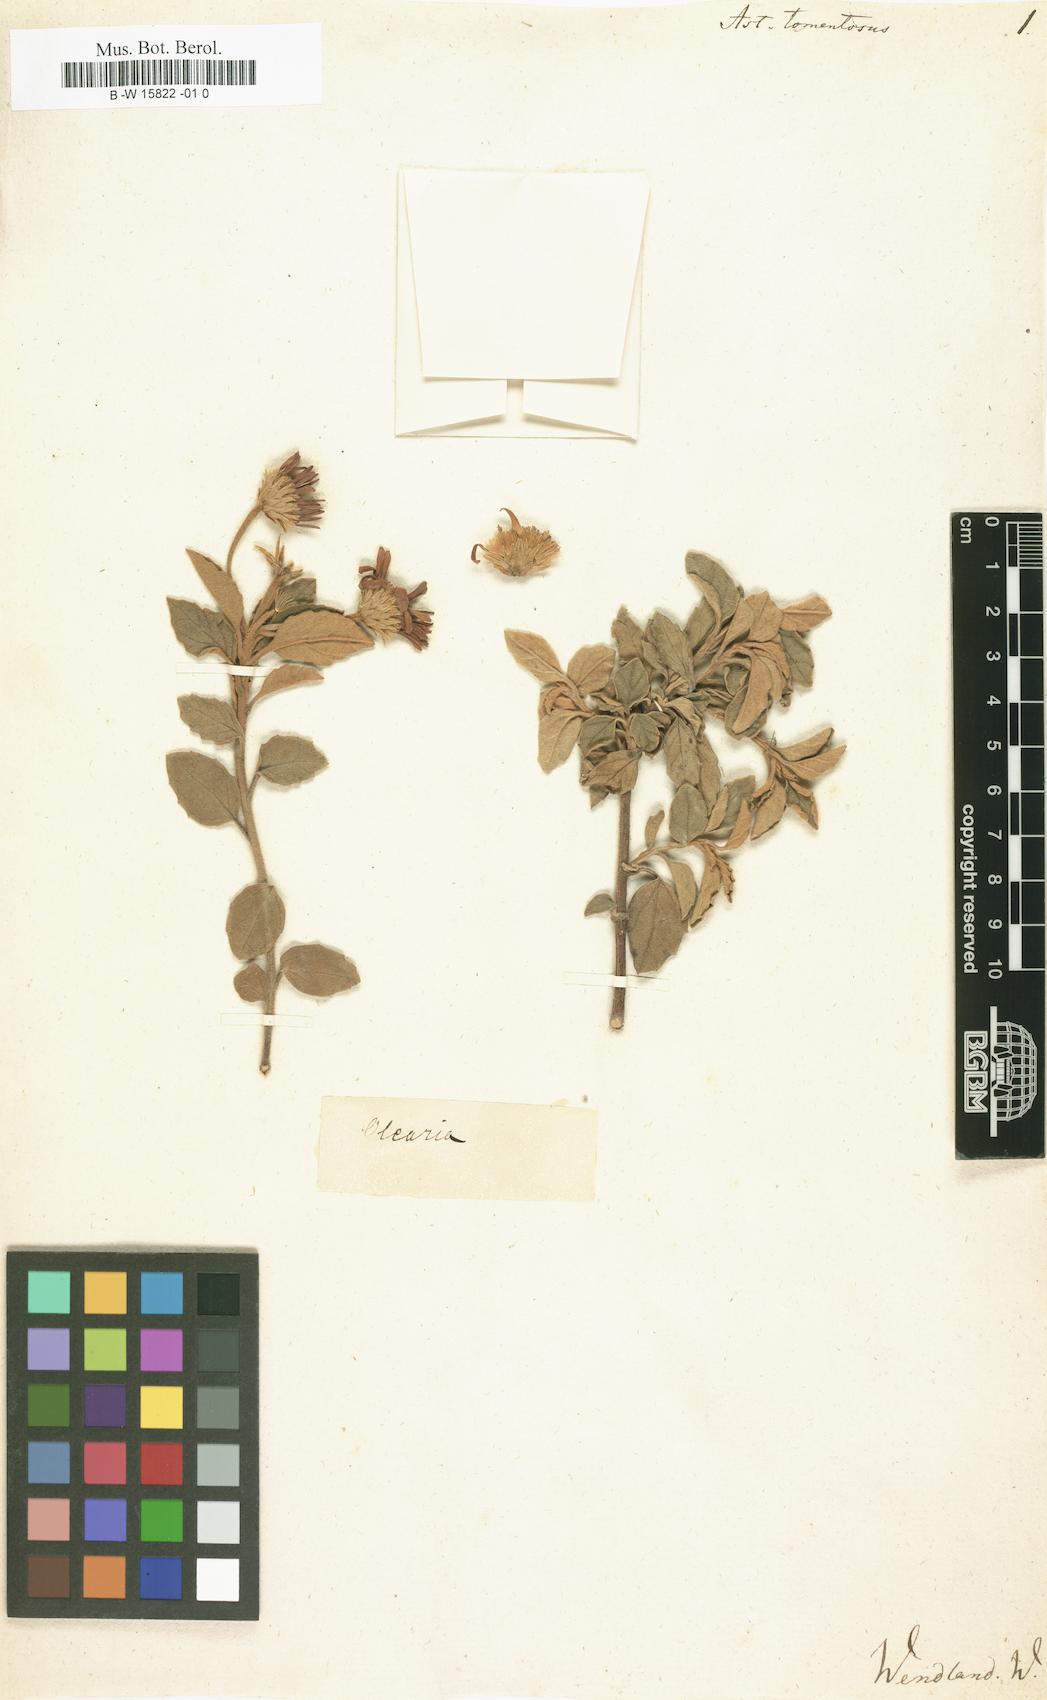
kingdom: Plantae
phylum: Tracheophyta
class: Magnoliopsida
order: Asterales
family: Asteraceae
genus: Aster
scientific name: Aster tomentosus
